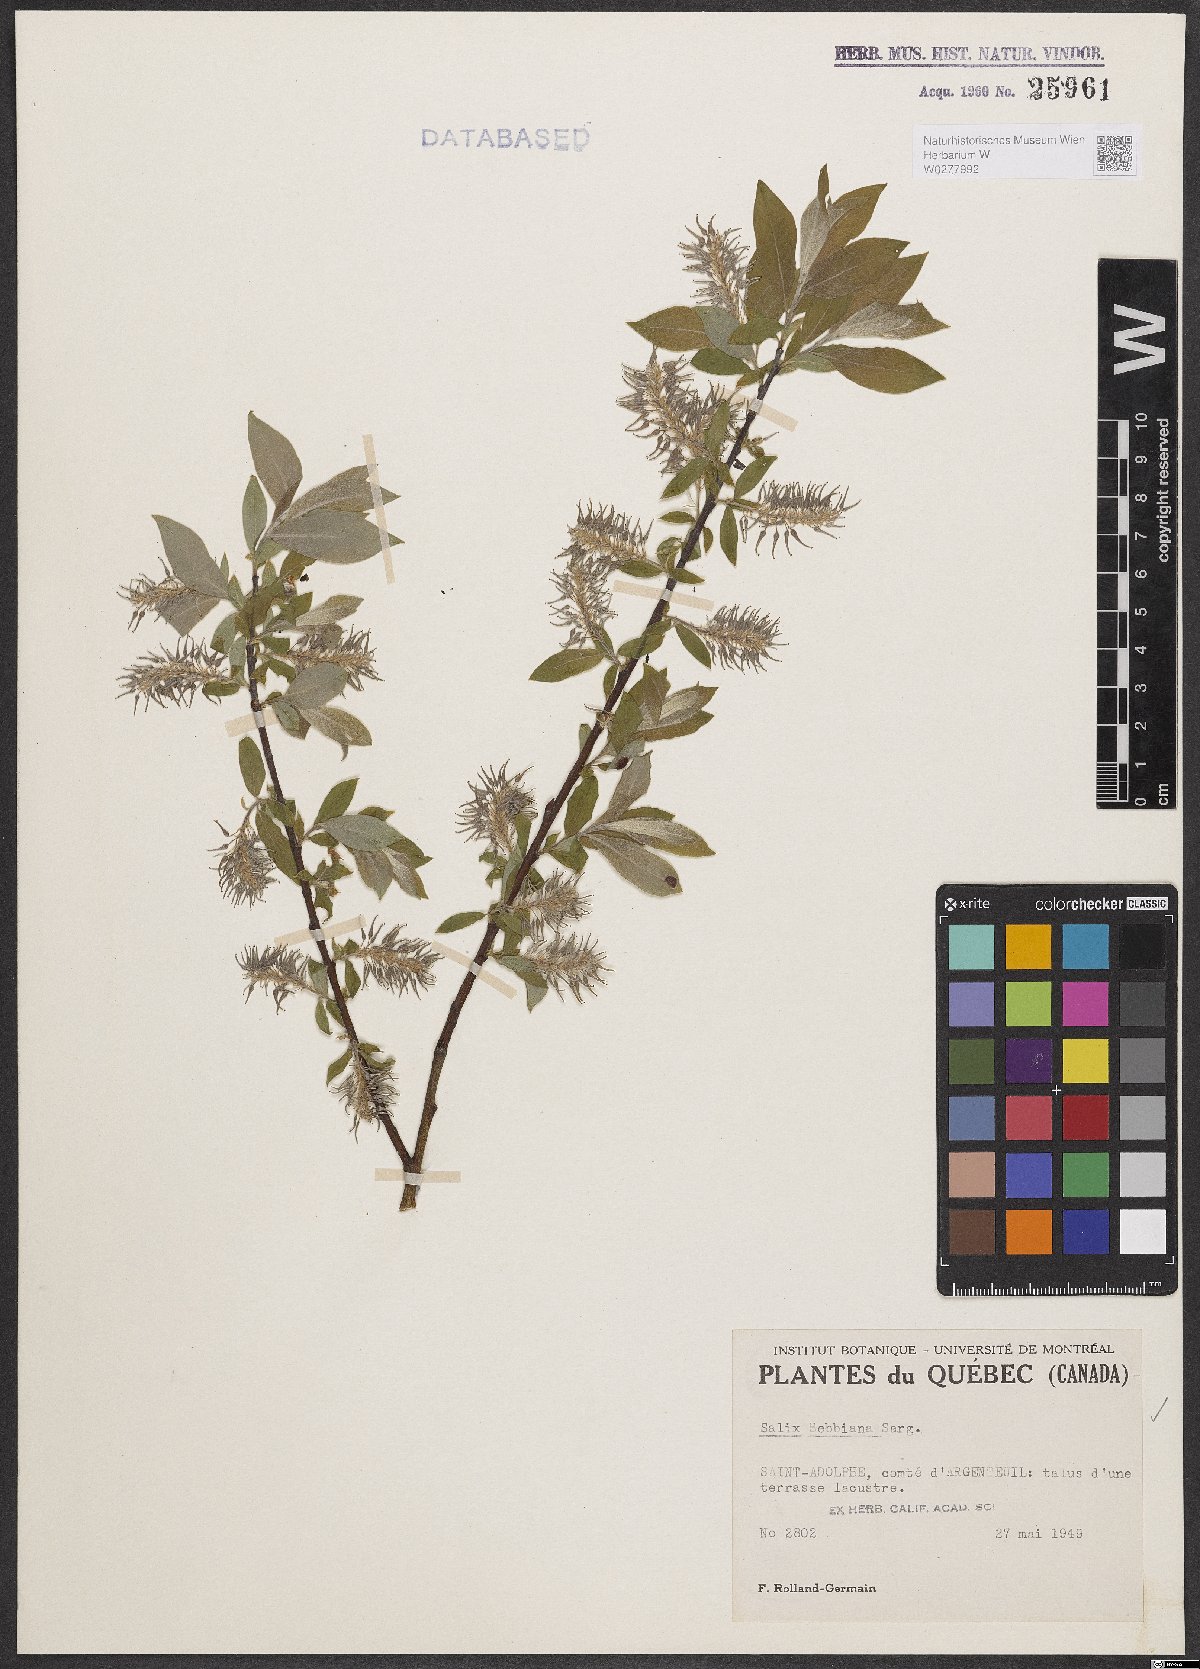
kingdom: Plantae
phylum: Tracheophyta
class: Magnoliopsida
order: Malpighiales
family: Salicaceae
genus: Salix
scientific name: Salix bebbiana
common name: Bebb's willow
